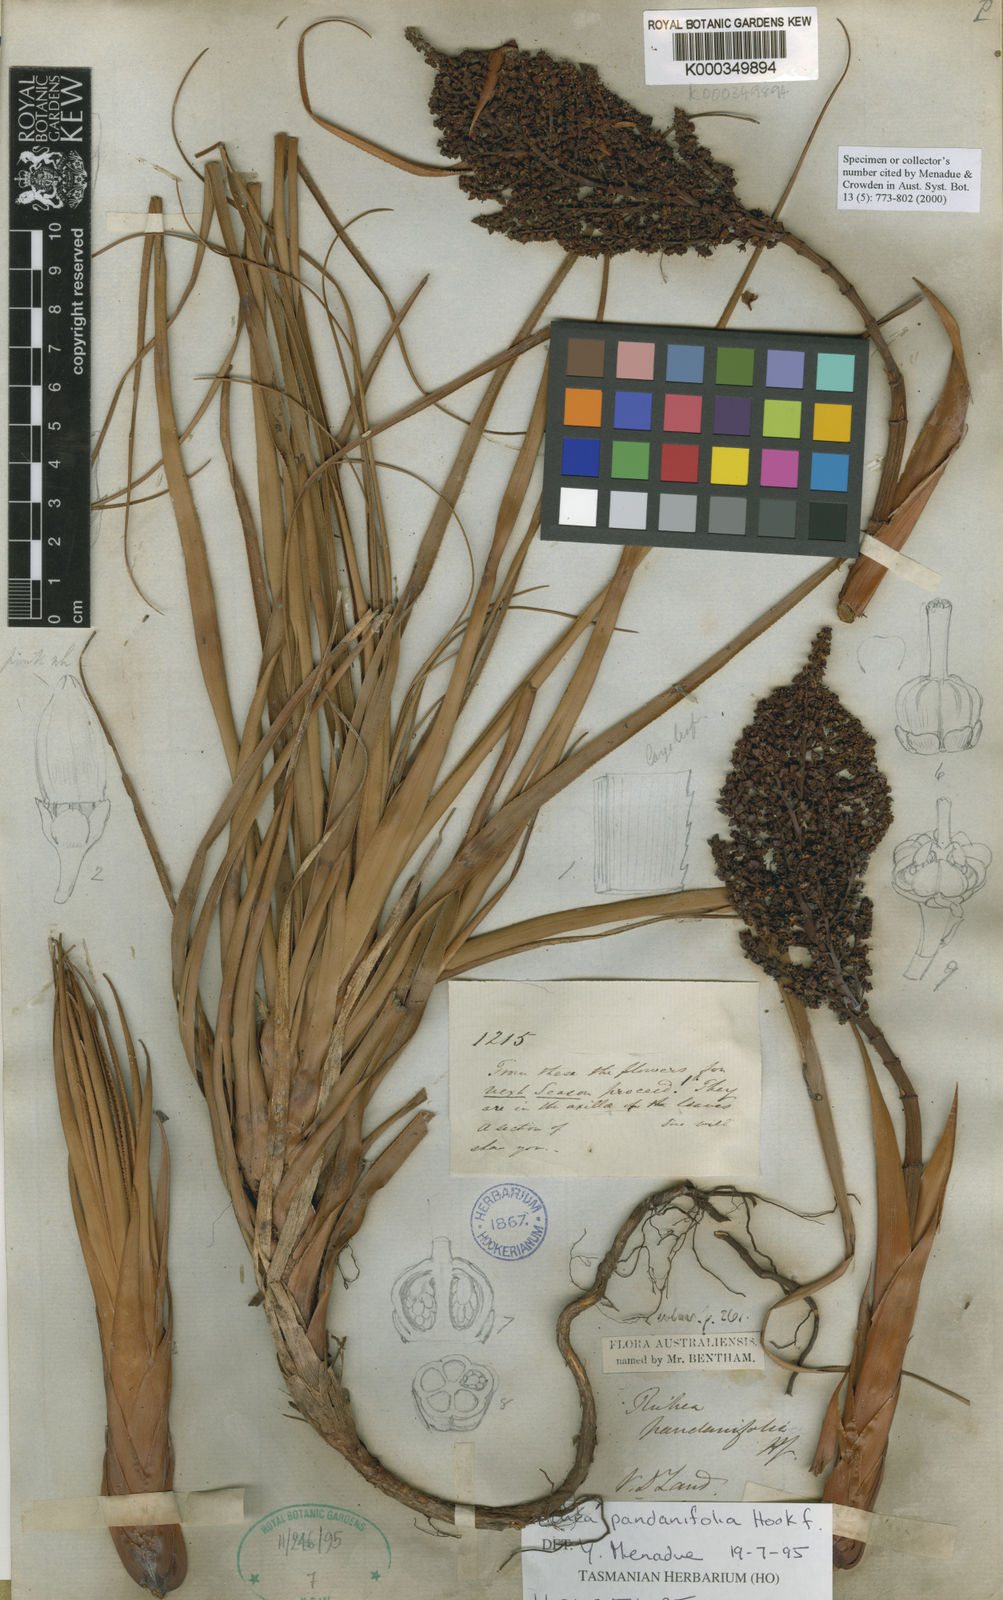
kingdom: Plantae
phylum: Tracheophyta
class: Magnoliopsida
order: Ericales
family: Ericaceae
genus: Dracophyllum
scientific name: Dracophyllum pandanifolium
